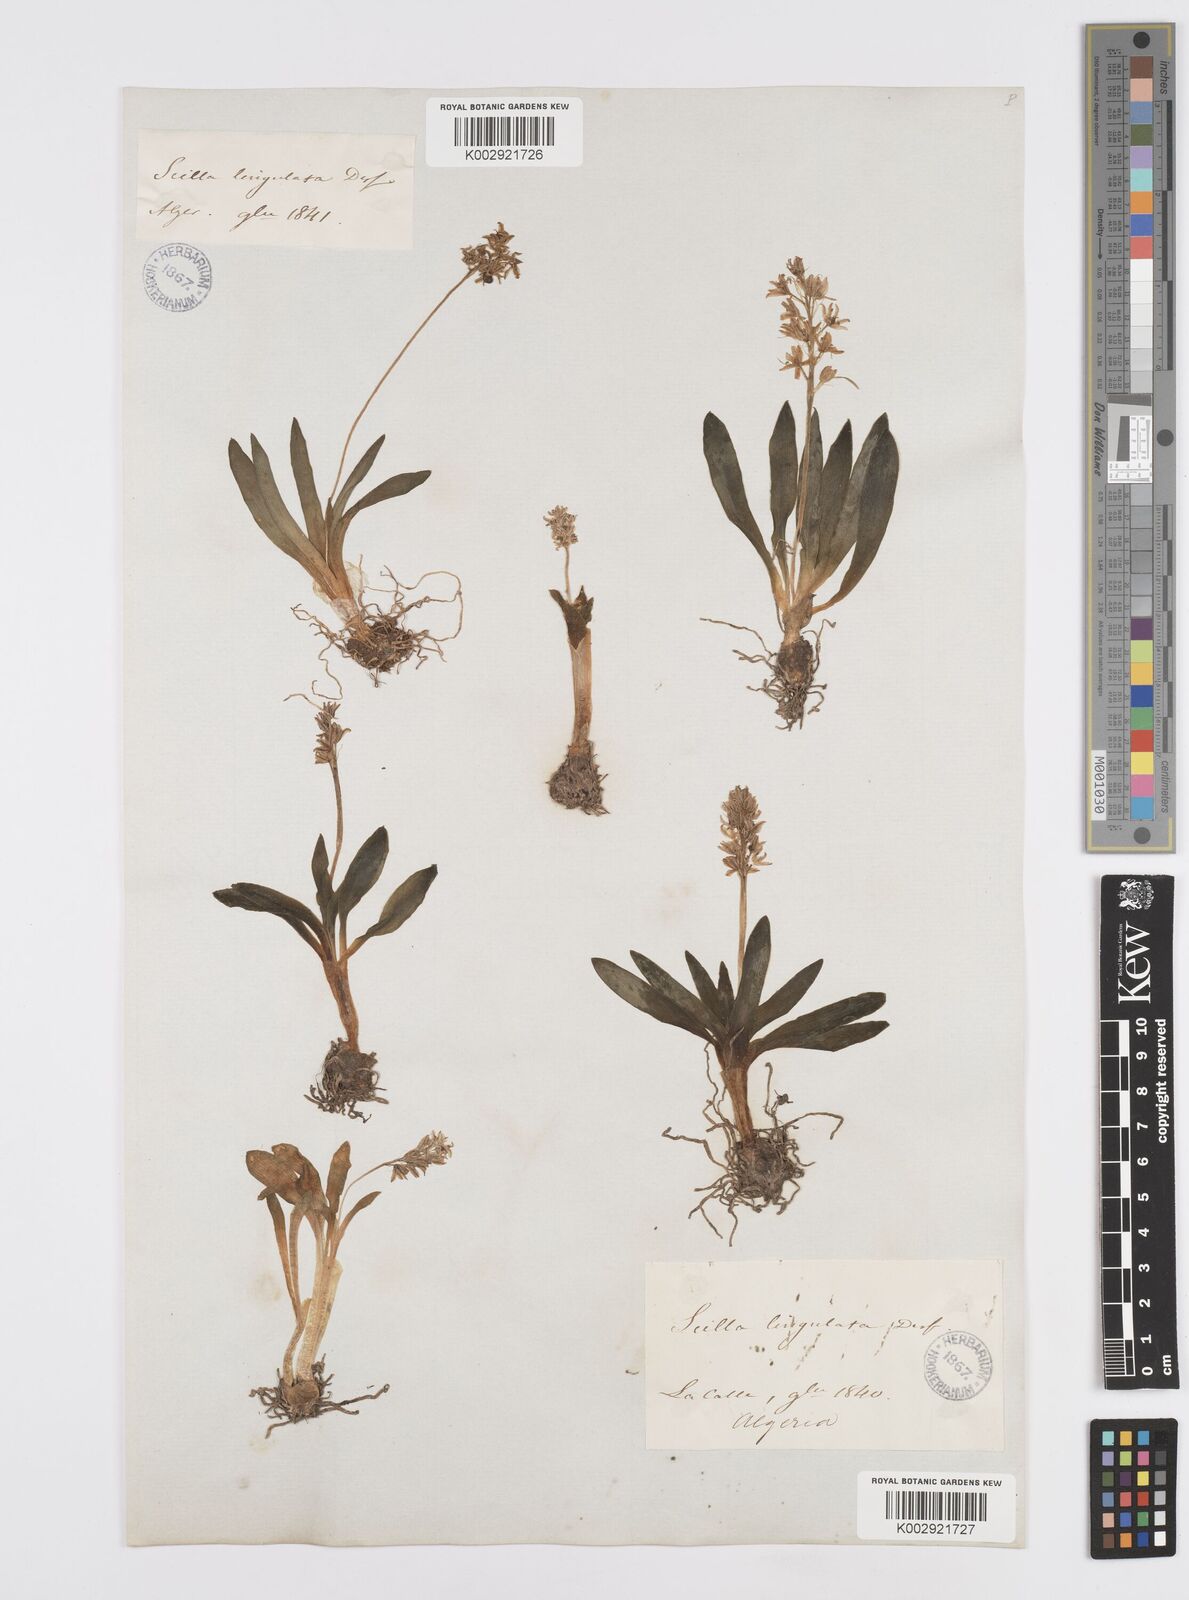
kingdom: Plantae
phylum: Tracheophyta
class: Liliopsida
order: Asparagales
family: Asparagaceae
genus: Hyacinthoides
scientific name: Hyacinthoides lingulata
